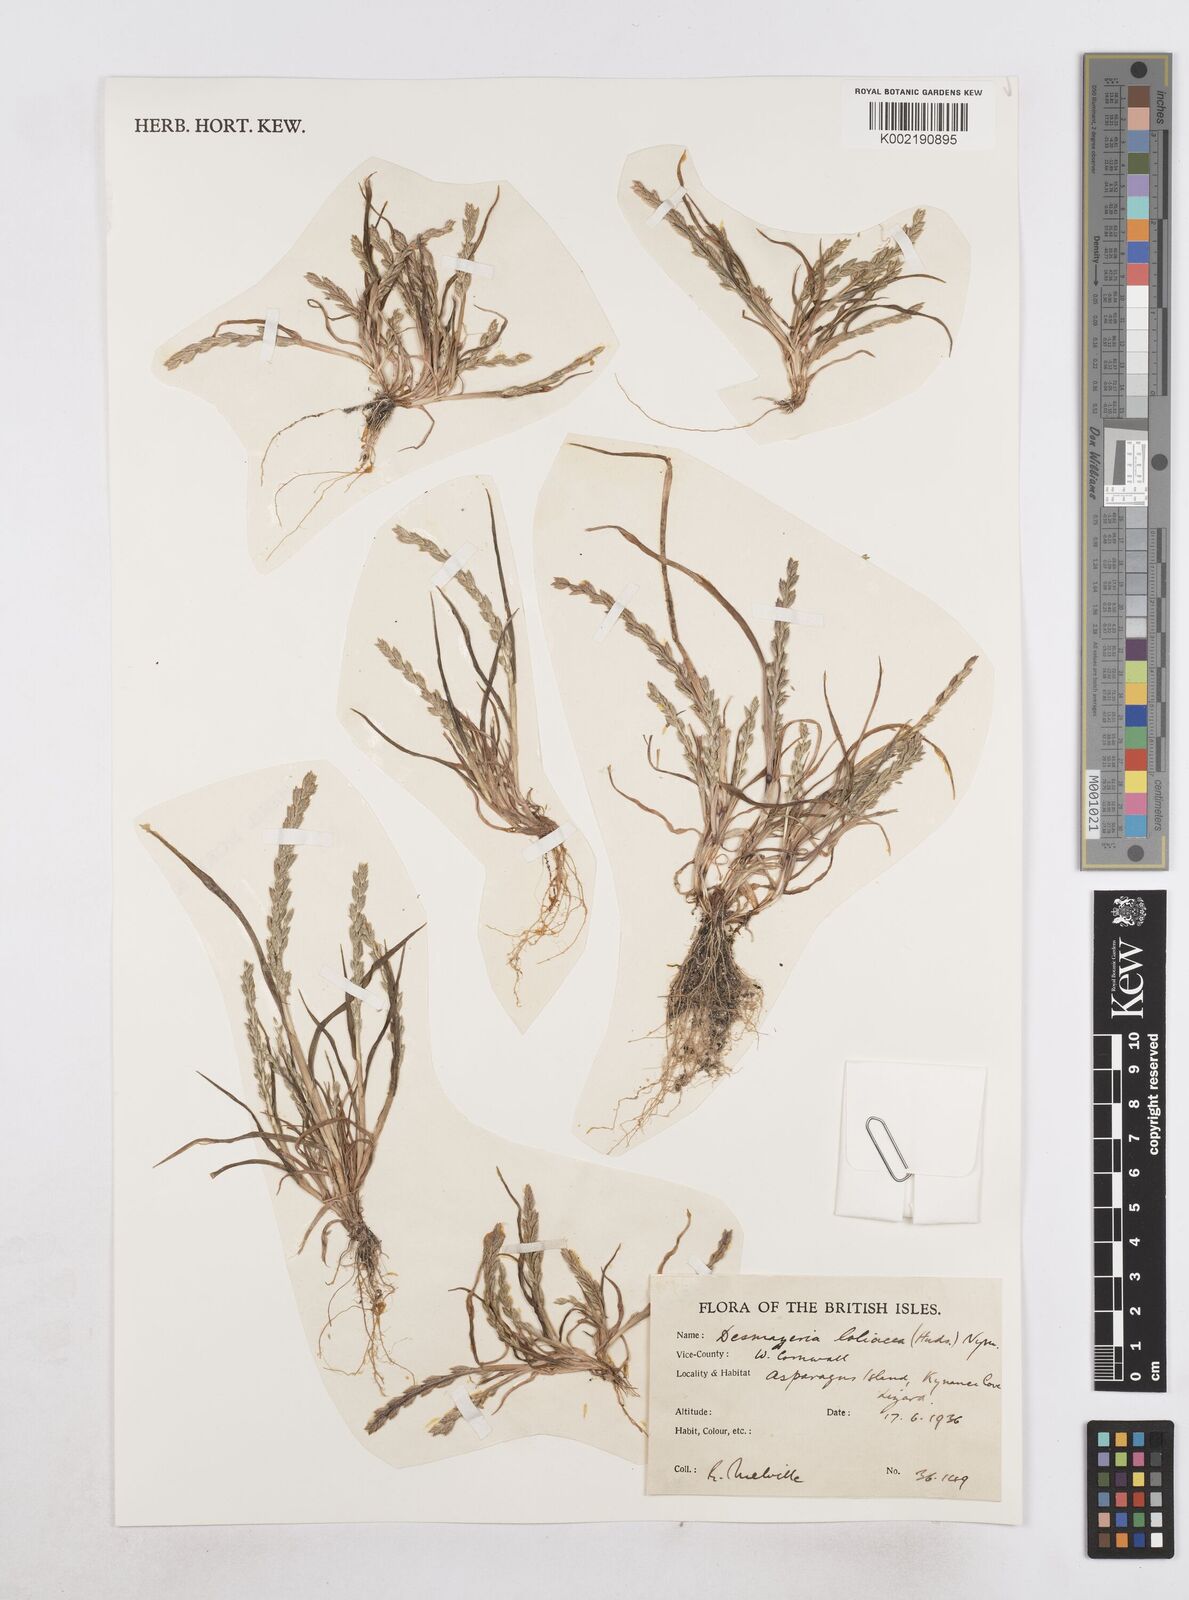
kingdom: Plantae
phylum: Tracheophyta
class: Liliopsida
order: Poales
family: Poaceae
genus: Catapodium
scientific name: Catapodium marinum
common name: Sea fern-grass
